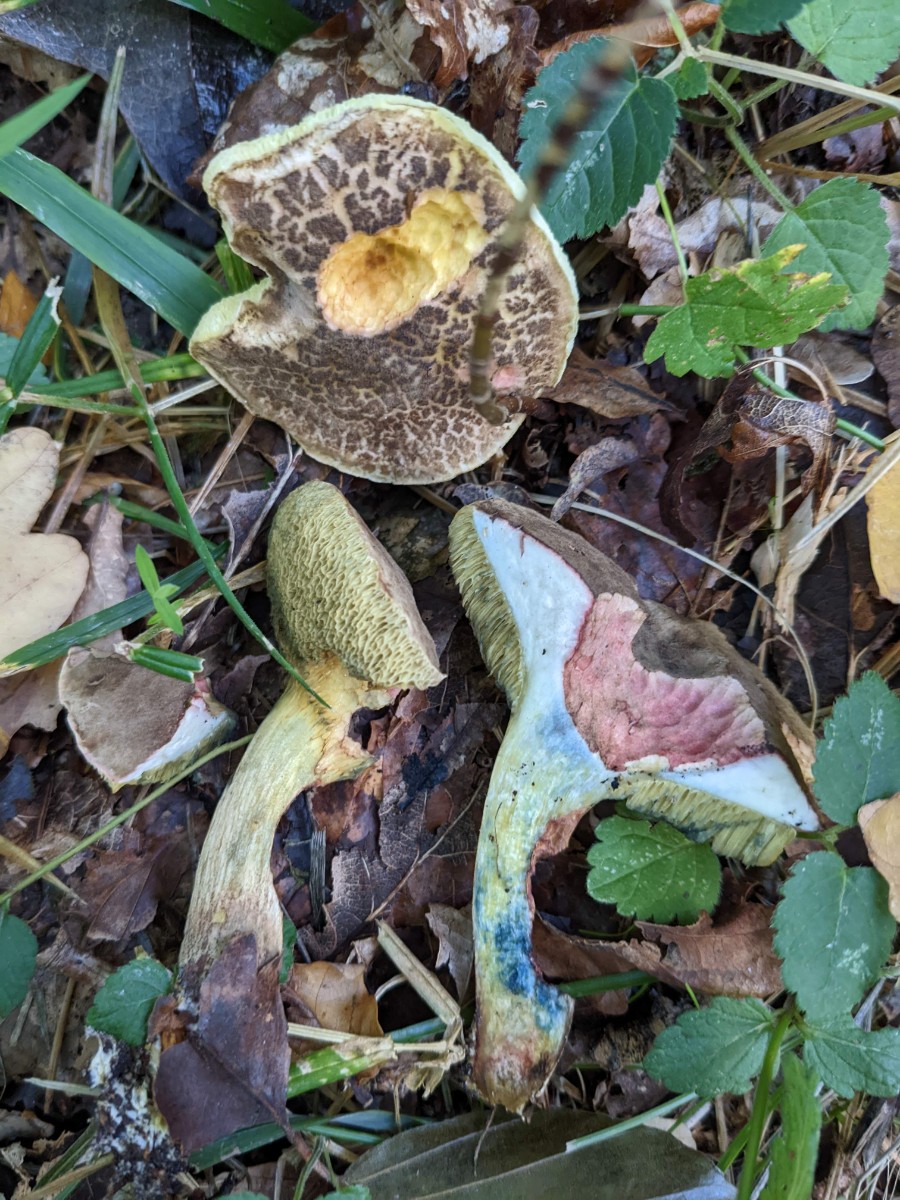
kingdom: Fungi
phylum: Basidiomycota
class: Agaricomycetes
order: Boletales
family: Boletaceae
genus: Xerocomellus
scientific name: Xerocomellus cisalpinus
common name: finsprukken rørhat
